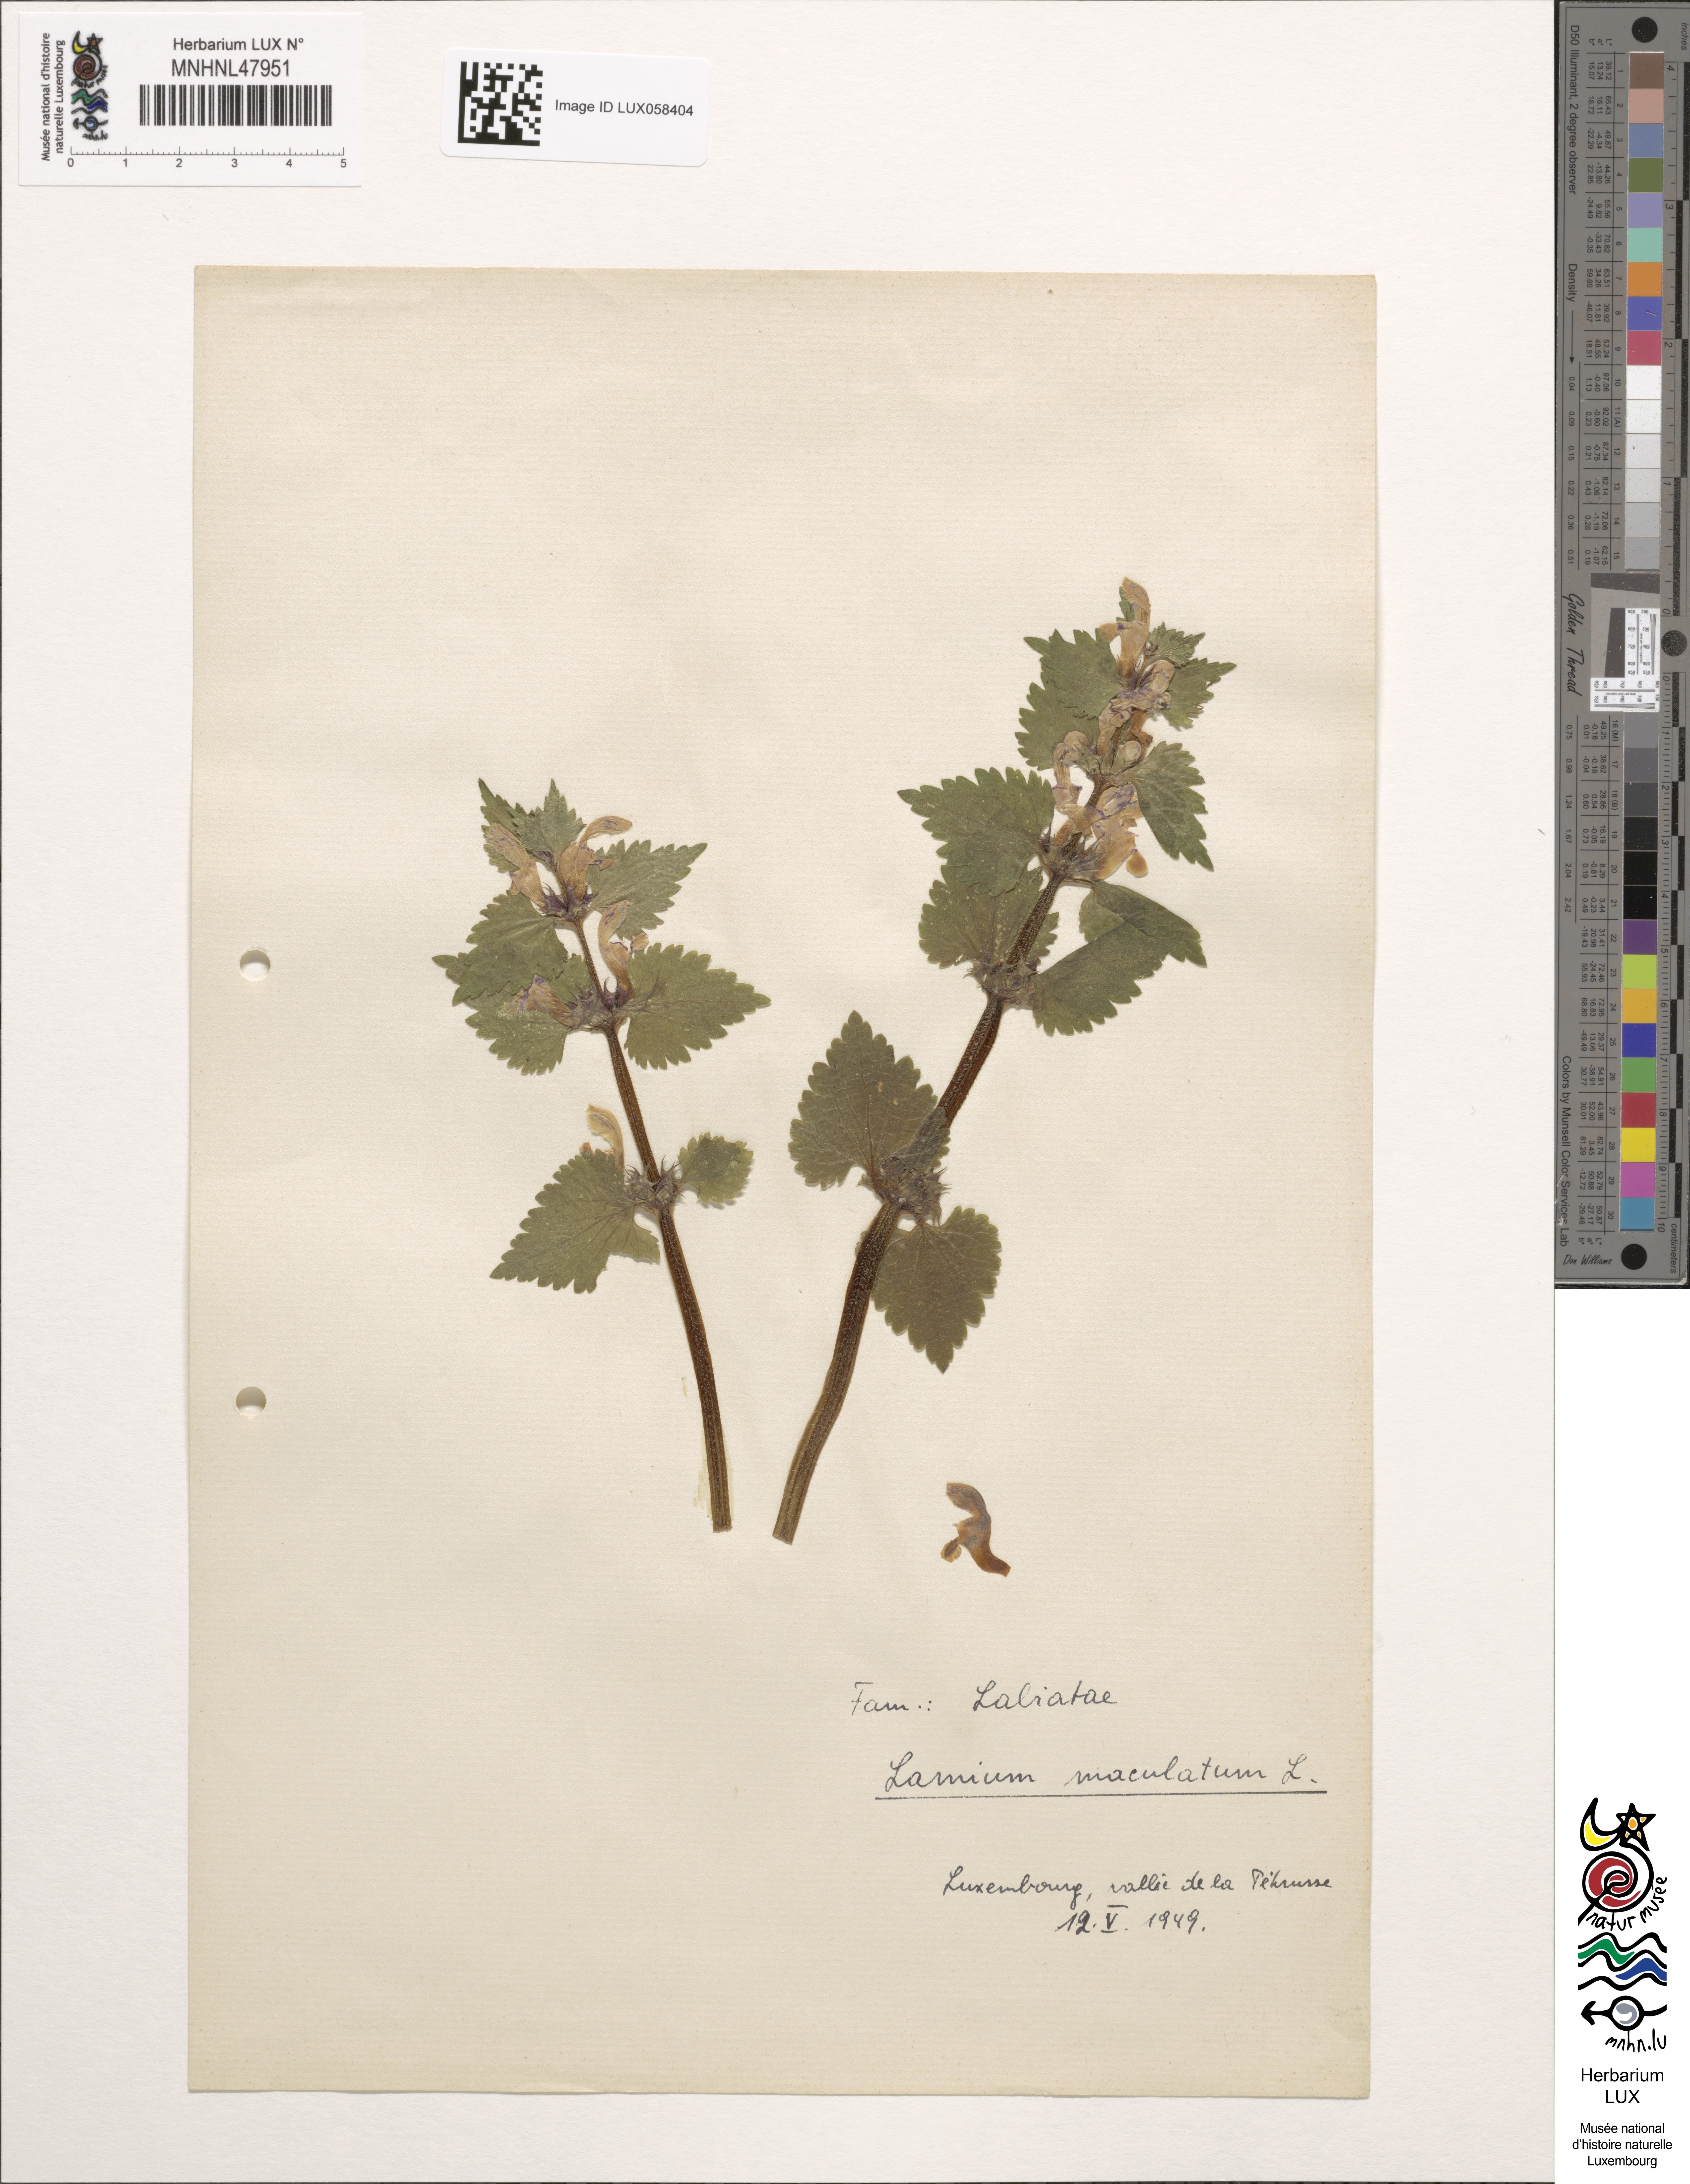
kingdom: Plantae
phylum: Tracheophyta
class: Magnoliopsida
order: Lamiales
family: Lamiaceae
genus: Lamium
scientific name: Lamium maculatum
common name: Spotted dead-nettle
